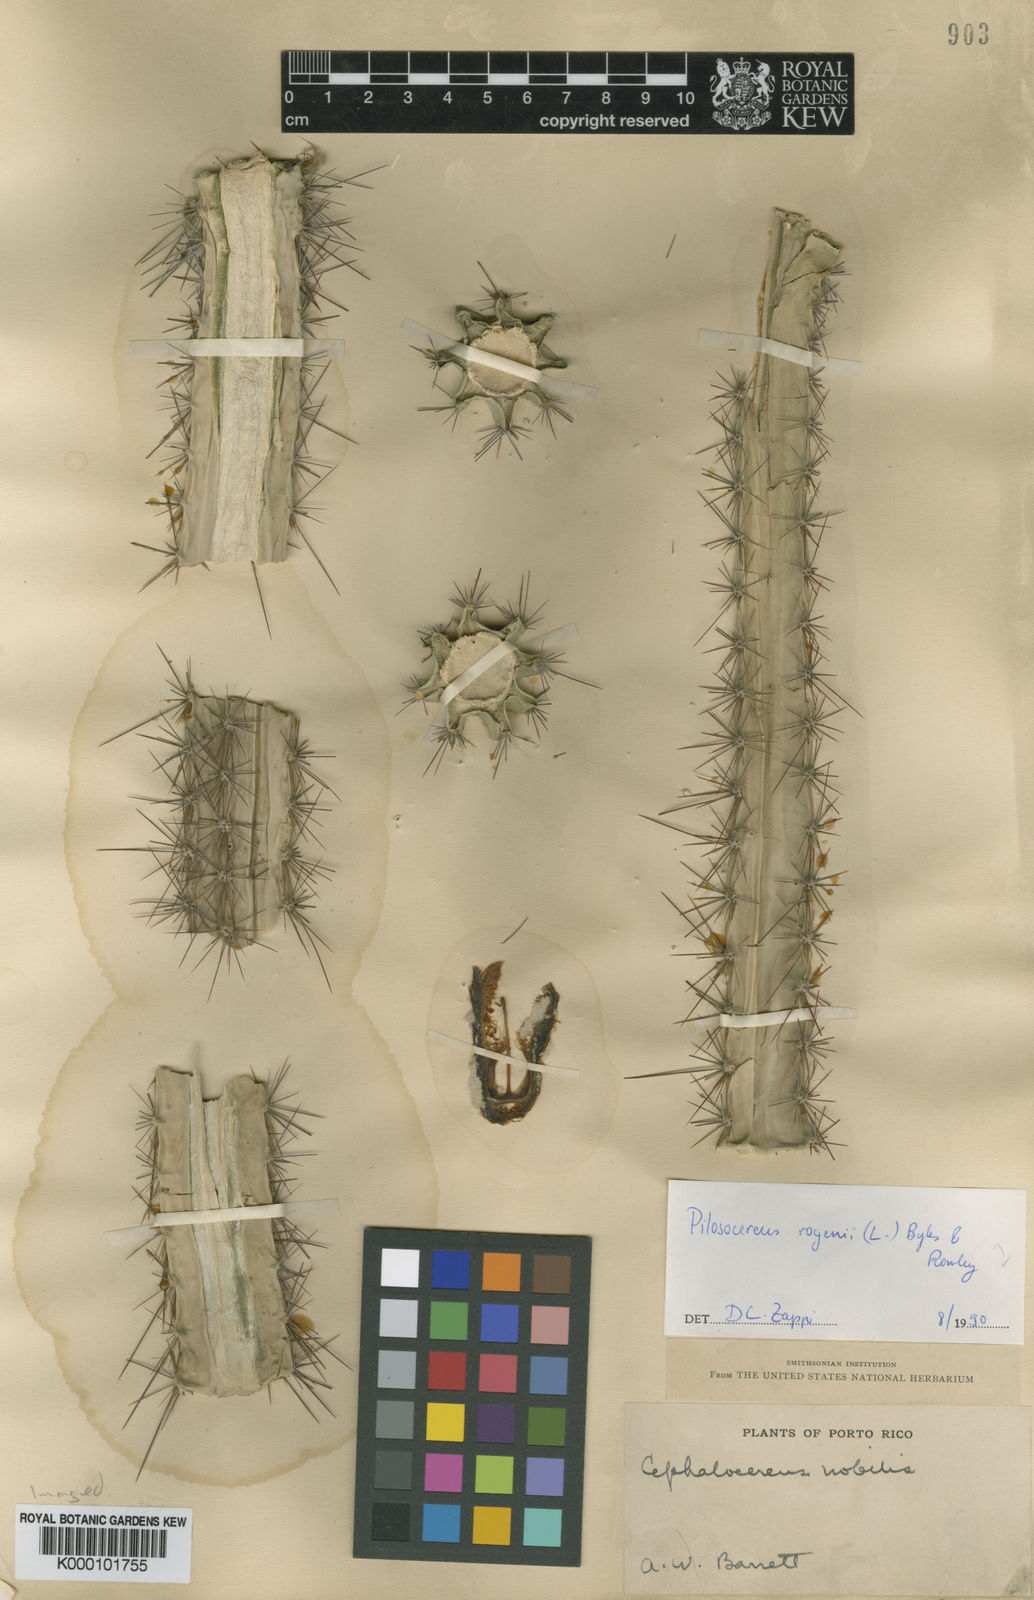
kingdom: Plantae
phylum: Tracheophyta
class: Magnoliopsida
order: Caryophyllales
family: Cactaceae
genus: Pilosocereus
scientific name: Pilosocereus polygonus
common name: Key tree cactus
